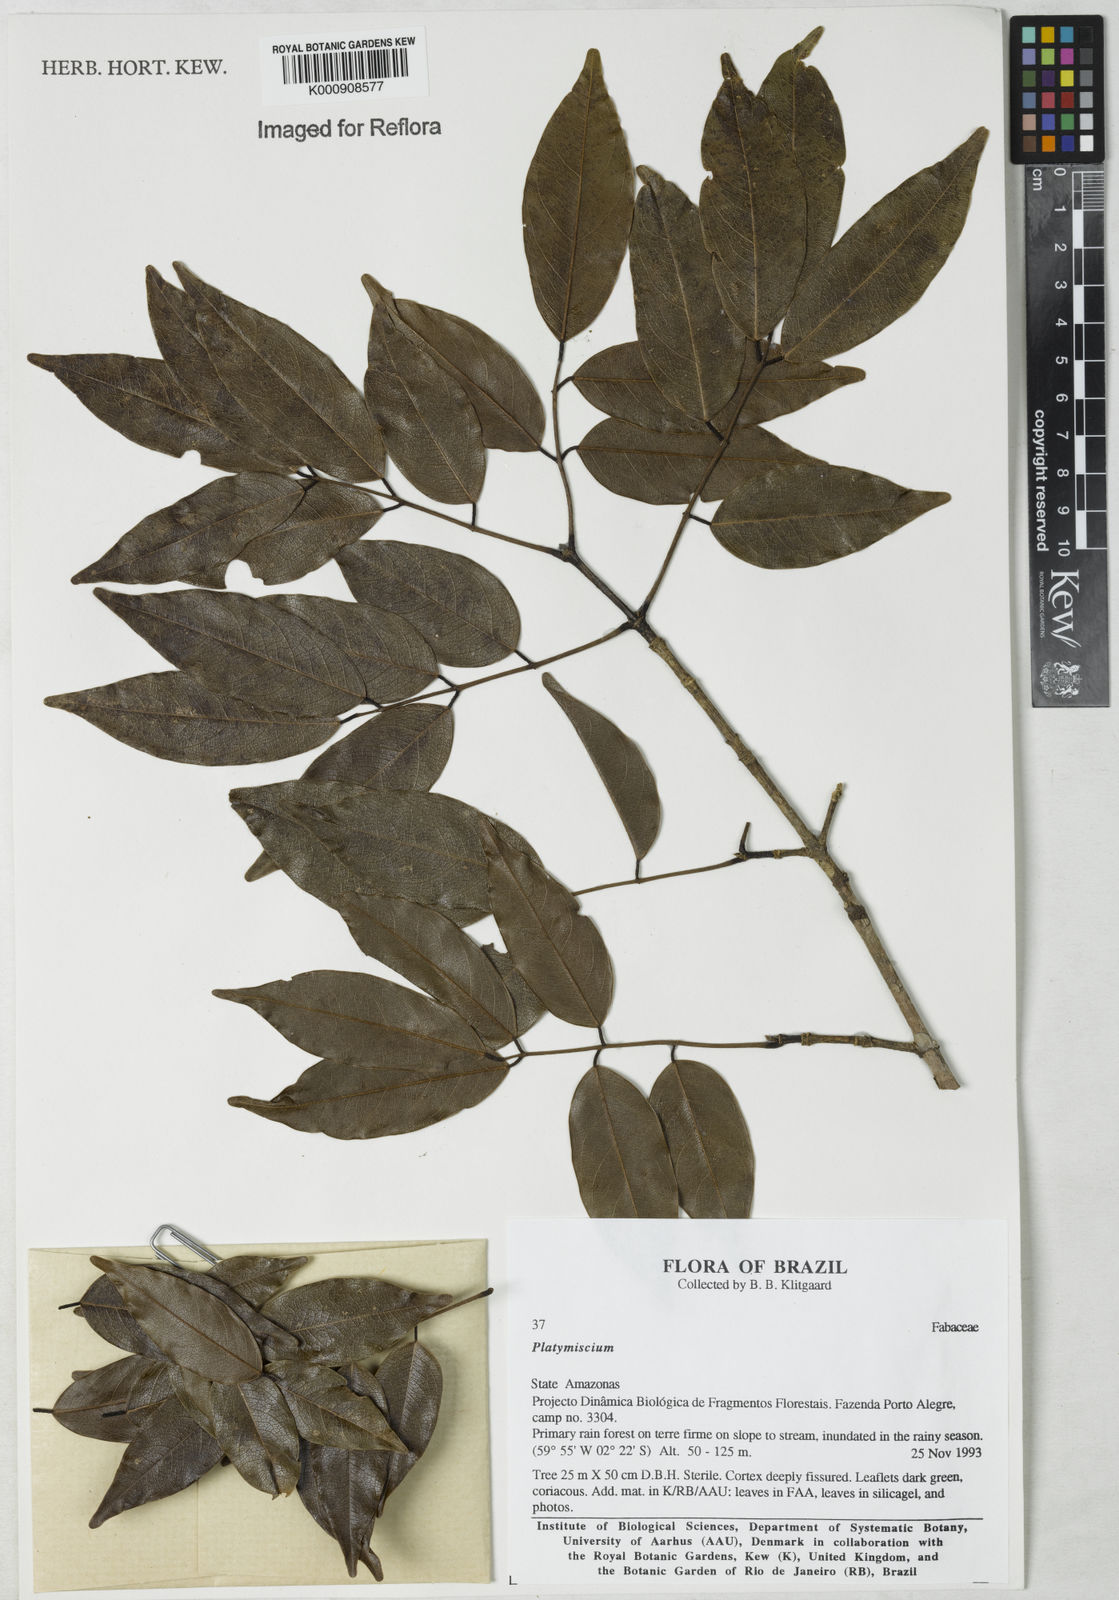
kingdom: Plantae
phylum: Tracheophyta
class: Magnoliopsida
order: Fabales
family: Fabaceae
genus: Platymiscium
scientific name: Platymiscium
